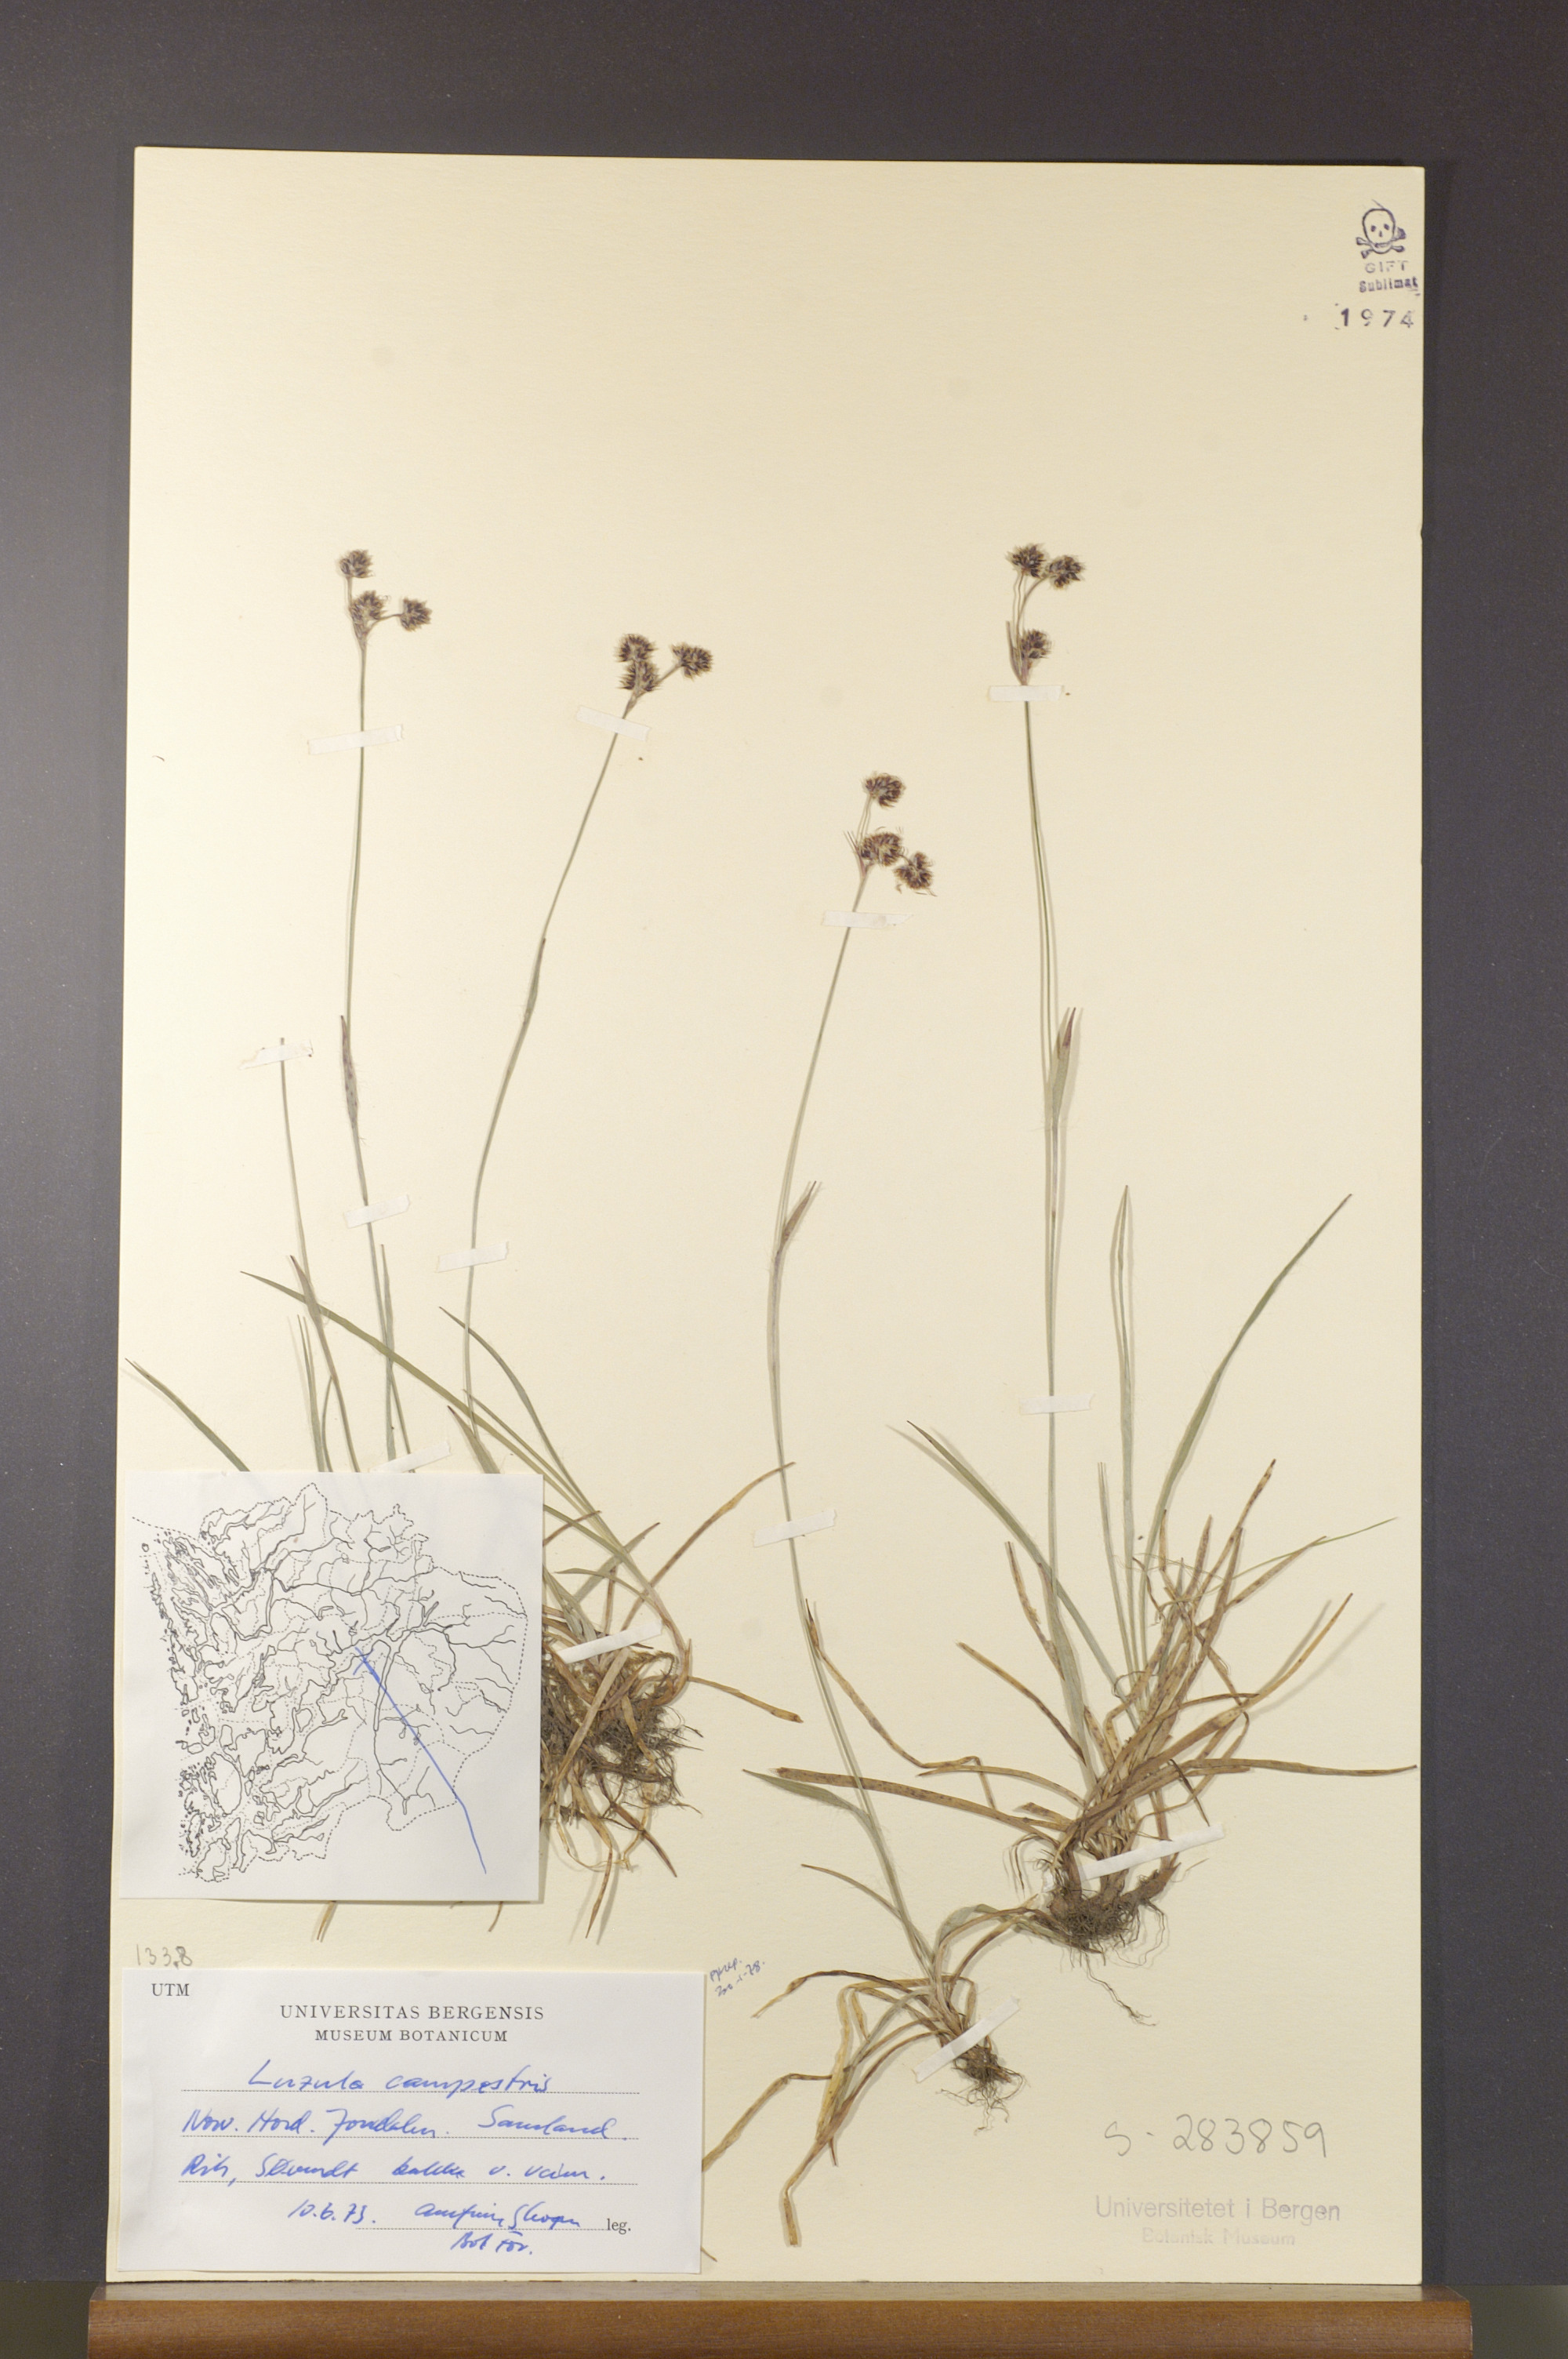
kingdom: Plantae
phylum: Tracheophyta
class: Liliopsida
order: Poales
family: Juncaceae
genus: Luzula
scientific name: Luzula campestris
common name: Field wood-rush
